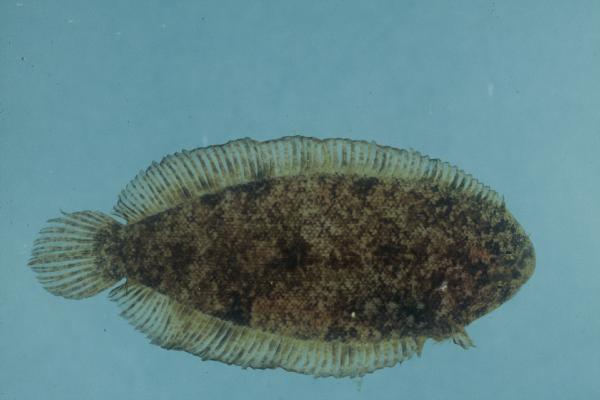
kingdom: Animalia
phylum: Chordata
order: Pleuronectiformes
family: Soleidae
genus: Aseraggodes
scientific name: Aseraggodes xenicus
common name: Dwarf sole
